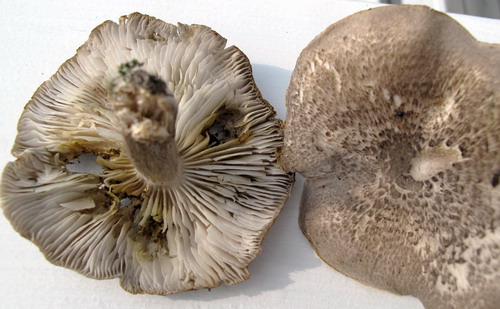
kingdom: Fungi
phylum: Basidiomycota
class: Agaricomycetes
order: Agaricales
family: Tricholomataceae
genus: Tricholoma
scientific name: Tricholoma scalpturatum
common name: gulplettet ridderhat
